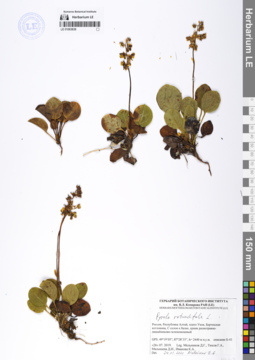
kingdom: Plantae
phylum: Tracheophyta
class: Magnoliopsida
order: Ericales
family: Ericaceae
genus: Pyrola
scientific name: Pyrola rotundifolia
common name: Round-leaved wintergreen
